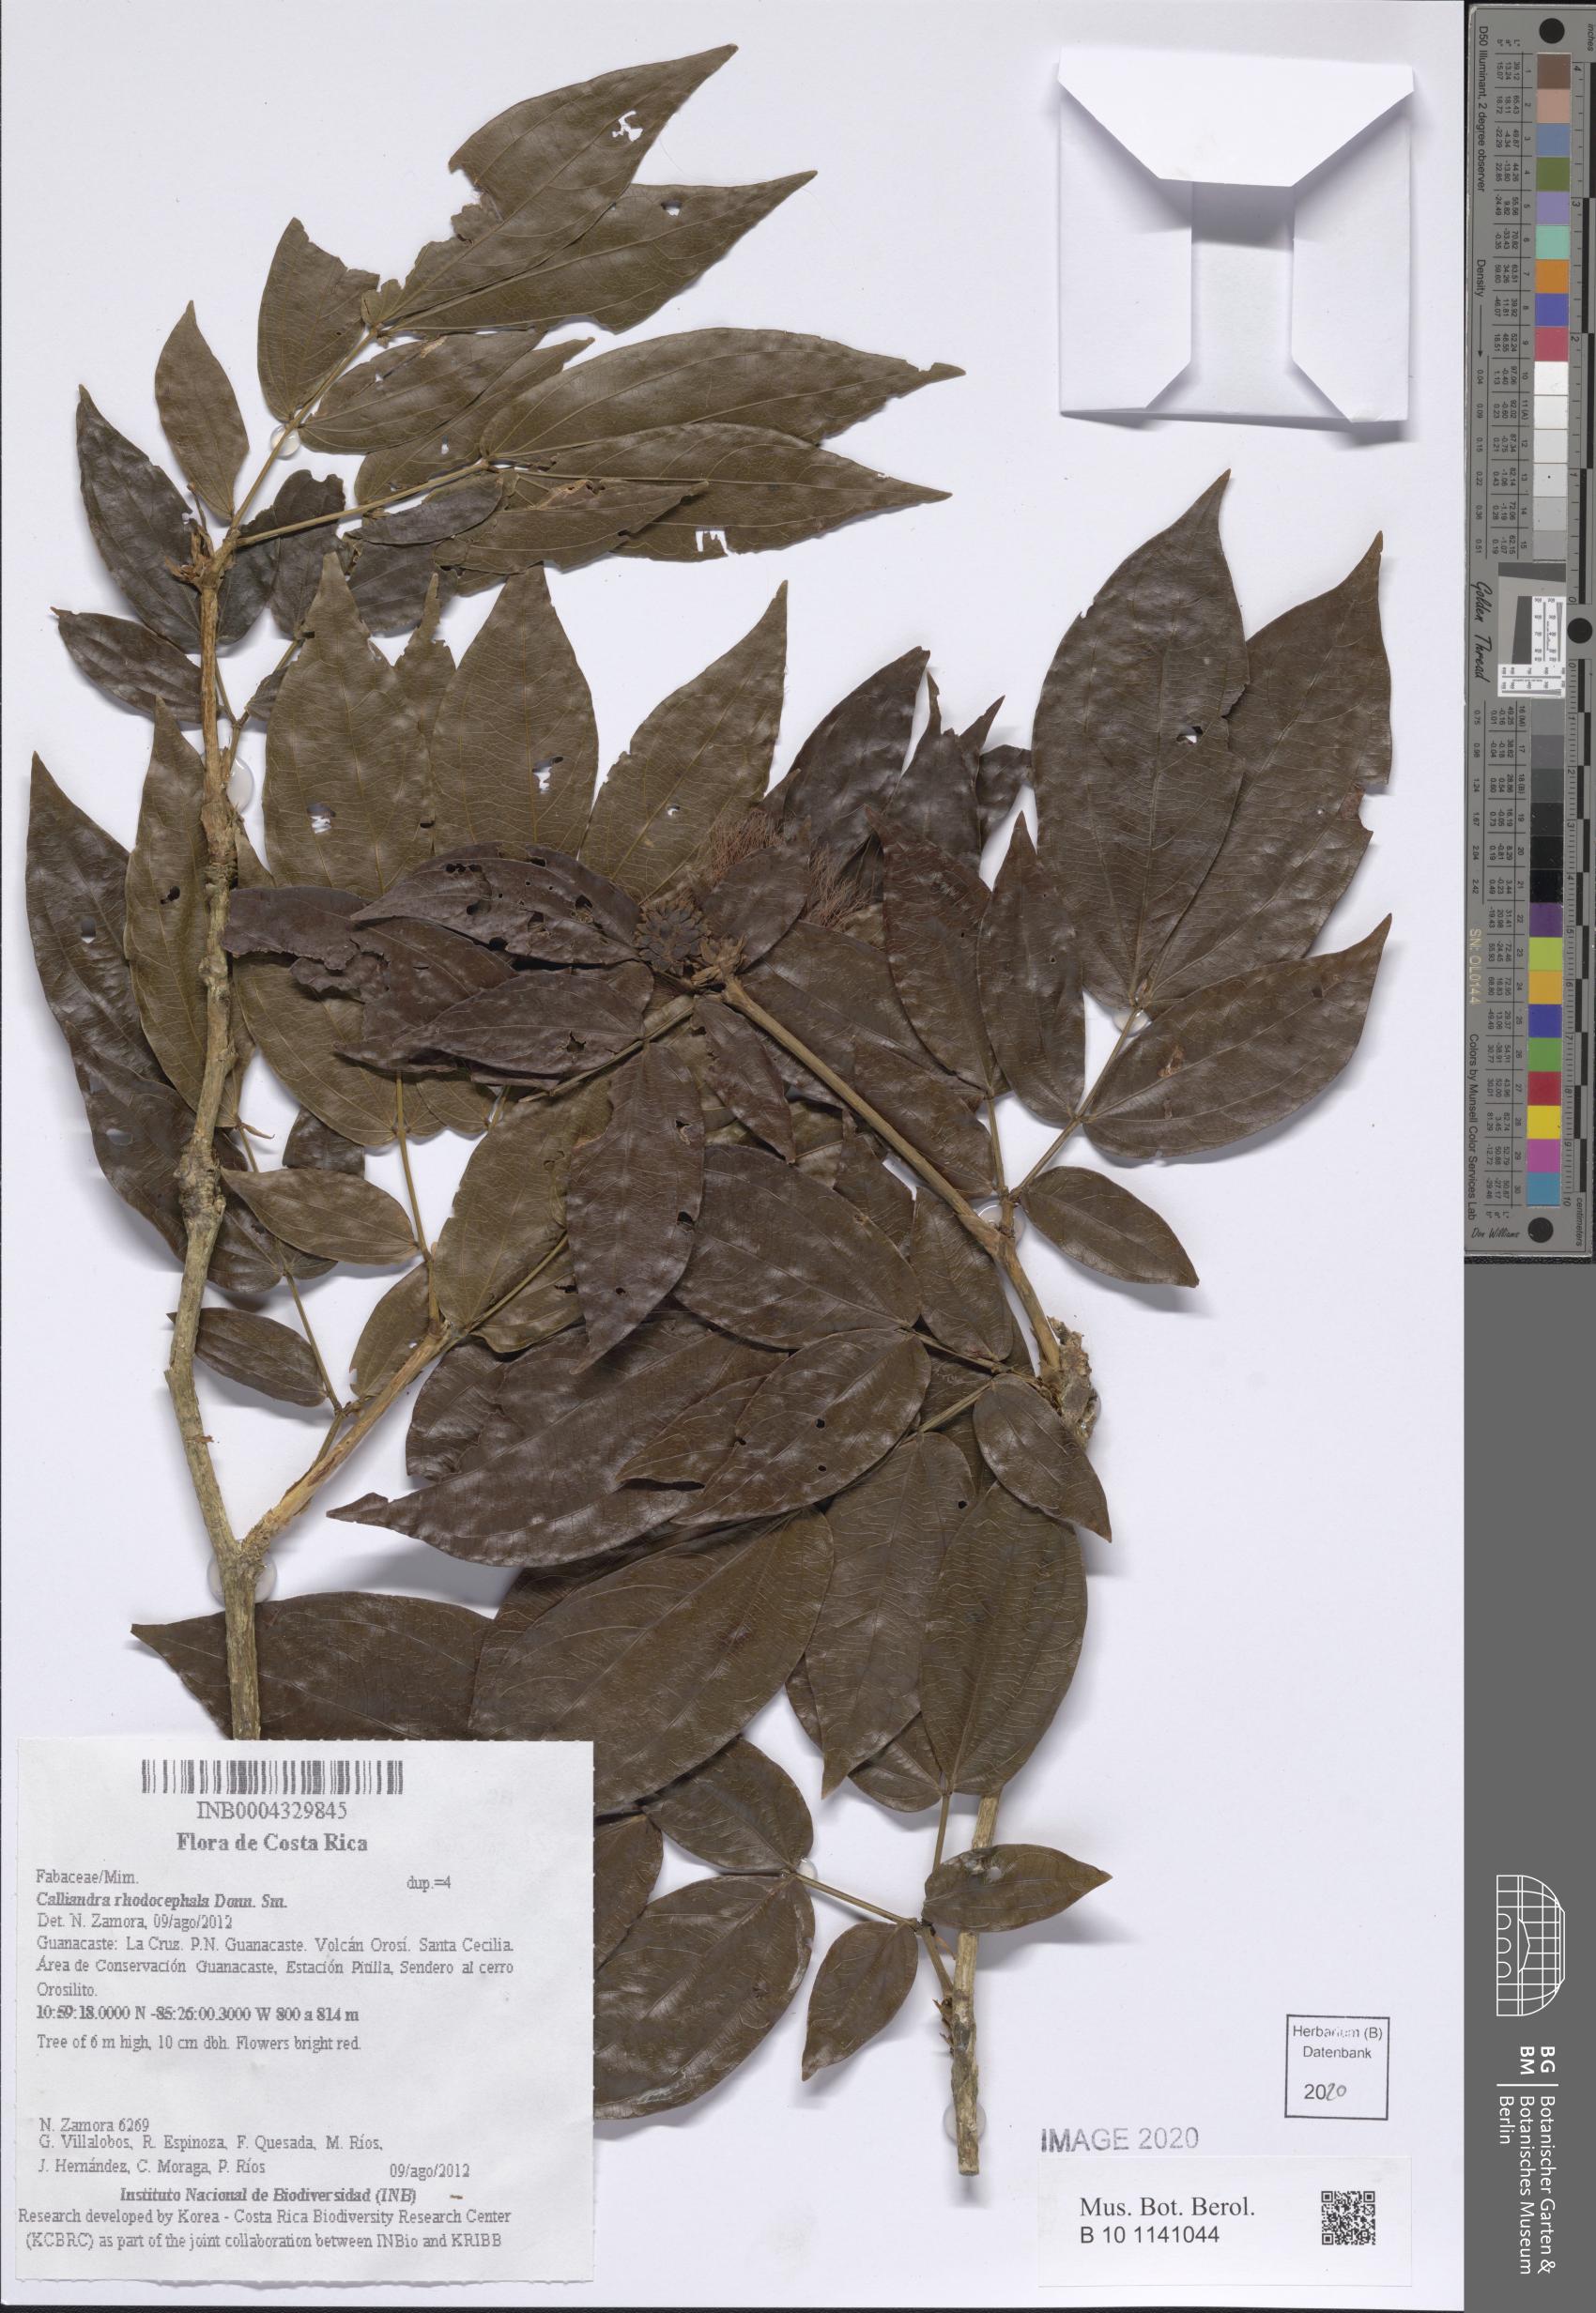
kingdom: Plantae
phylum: Tracheophyta
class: Magnoliopsida
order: Fabales
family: Fabaceae
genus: Calliandra
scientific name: Calliandra rhodocephala
